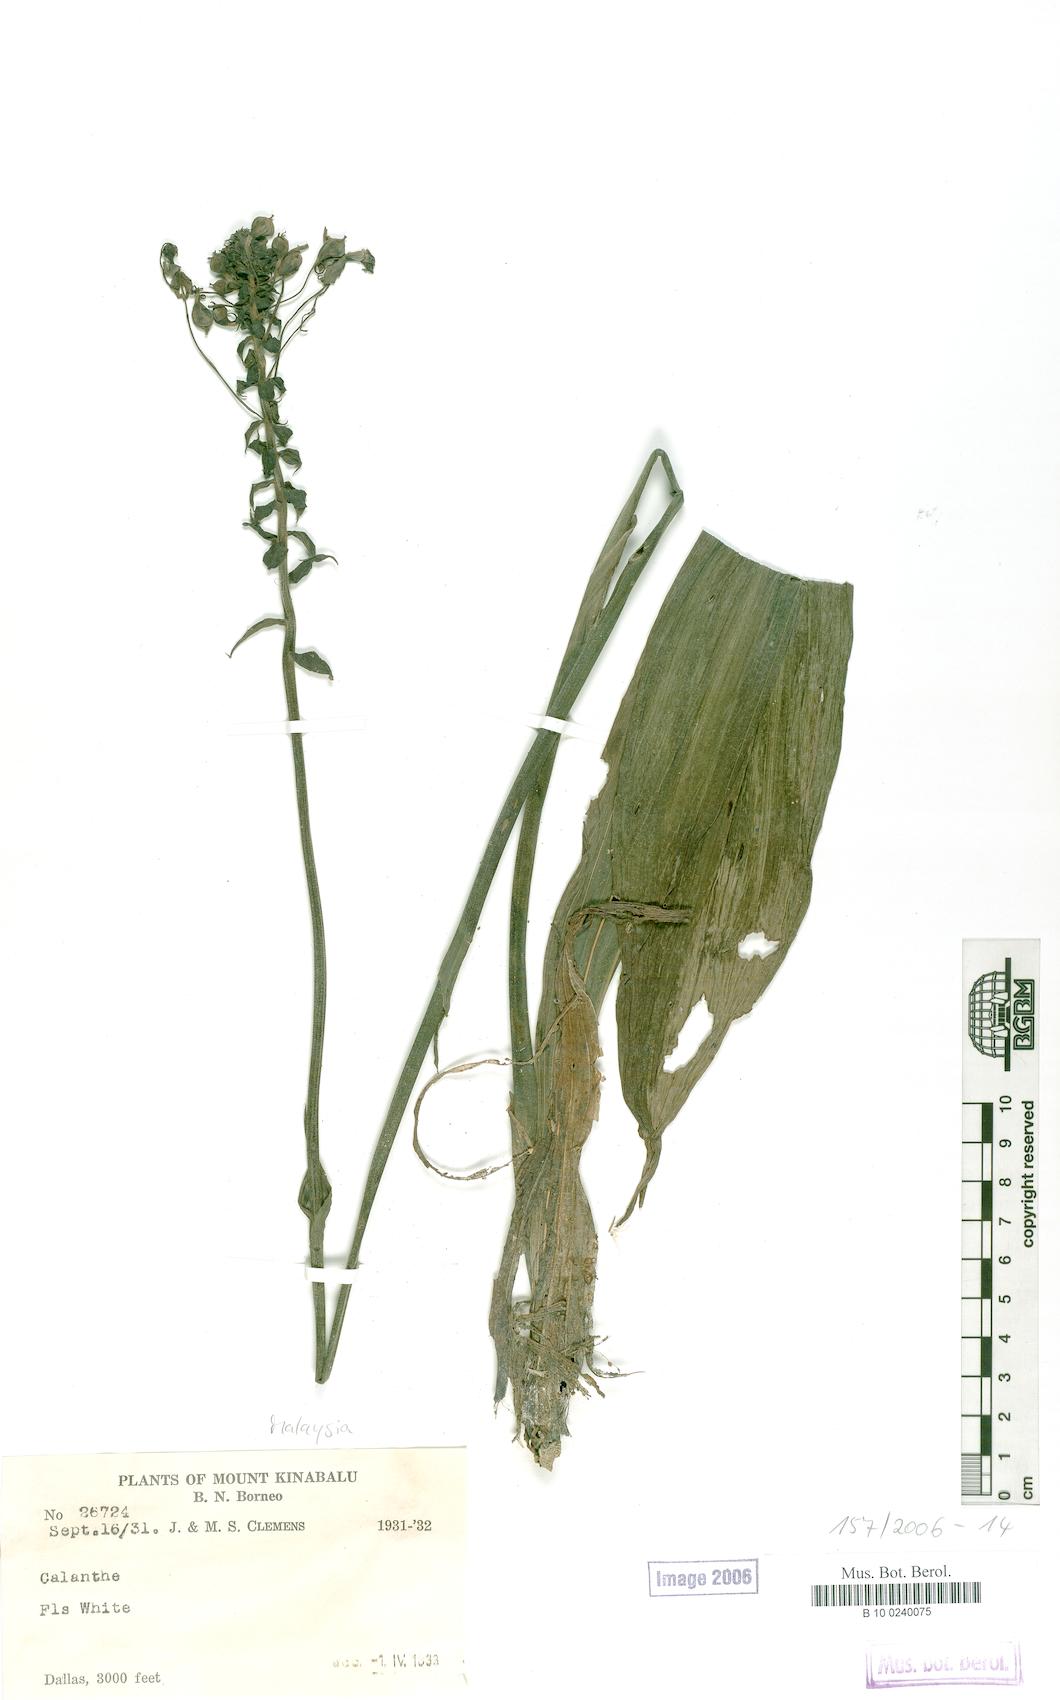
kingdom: Plantae
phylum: Tracheophyta
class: Liliopsida
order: Asparagales
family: Orchidaceae
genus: Calanthe
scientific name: Calanthe pulchra
